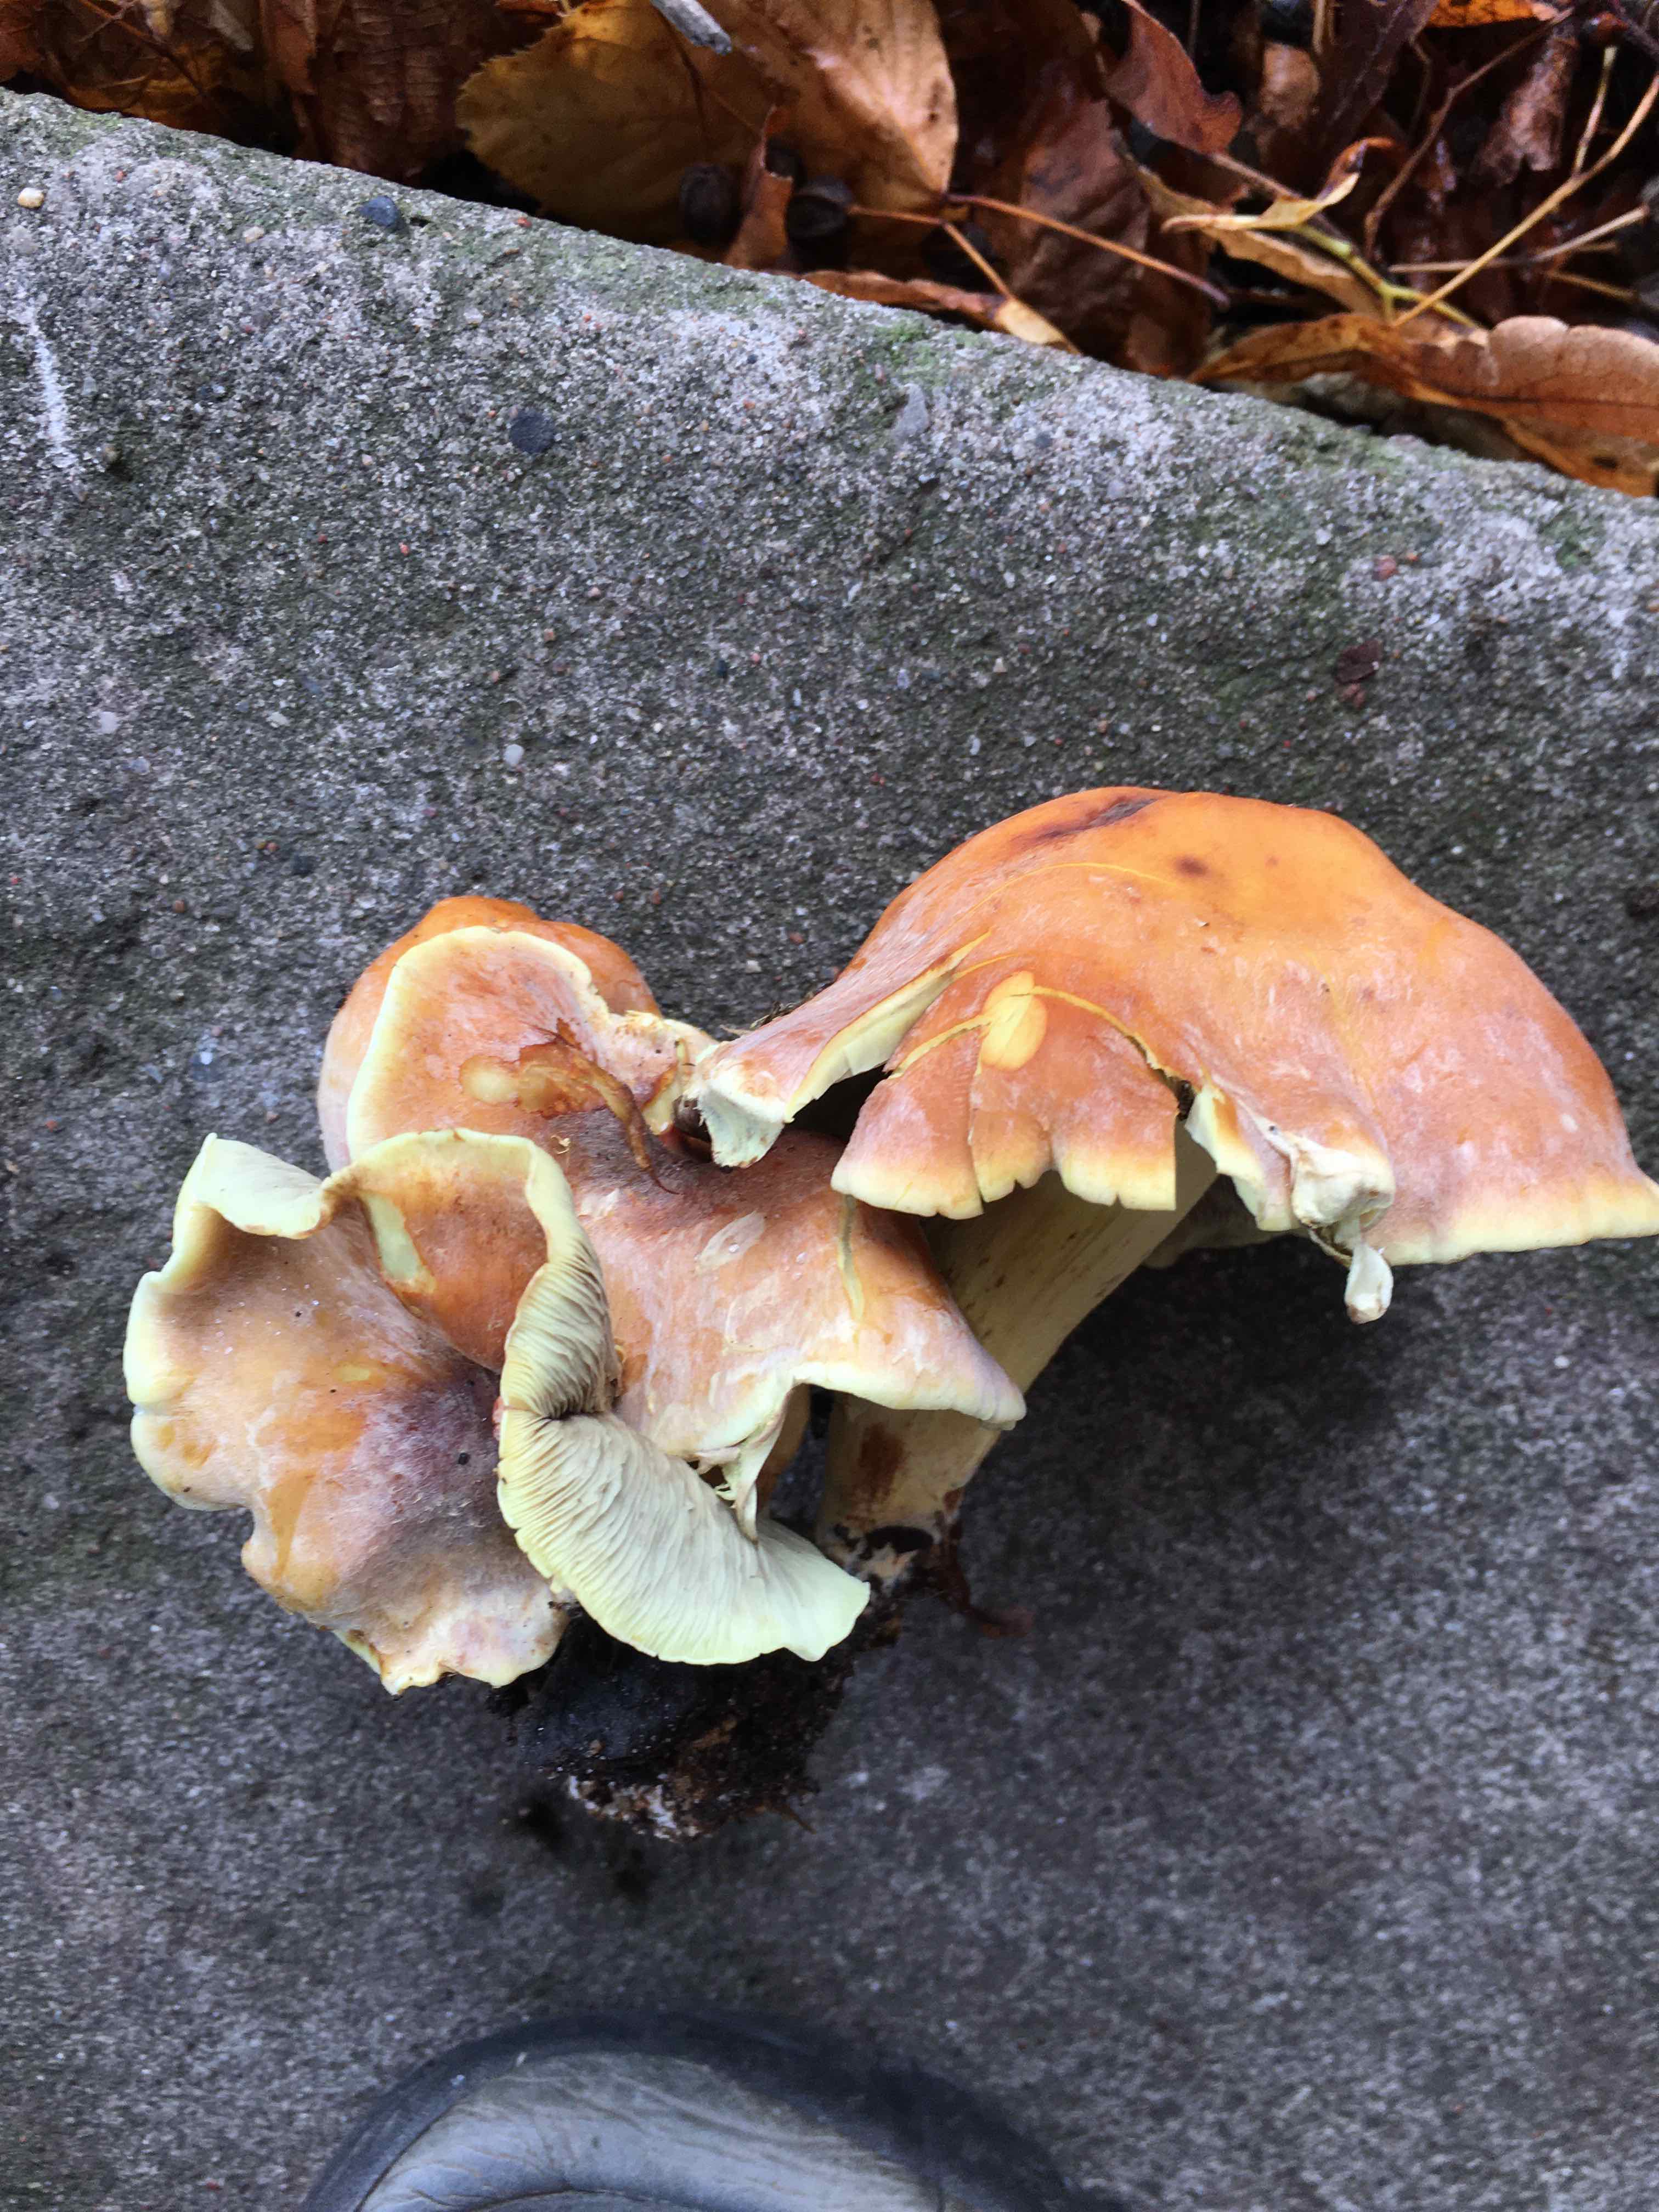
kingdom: Fungi
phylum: Basidiomycota
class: Agaricomycetes
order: Agaricales
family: Strophariaceae
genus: Hypholoma
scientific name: Hypholoma fasciculare
